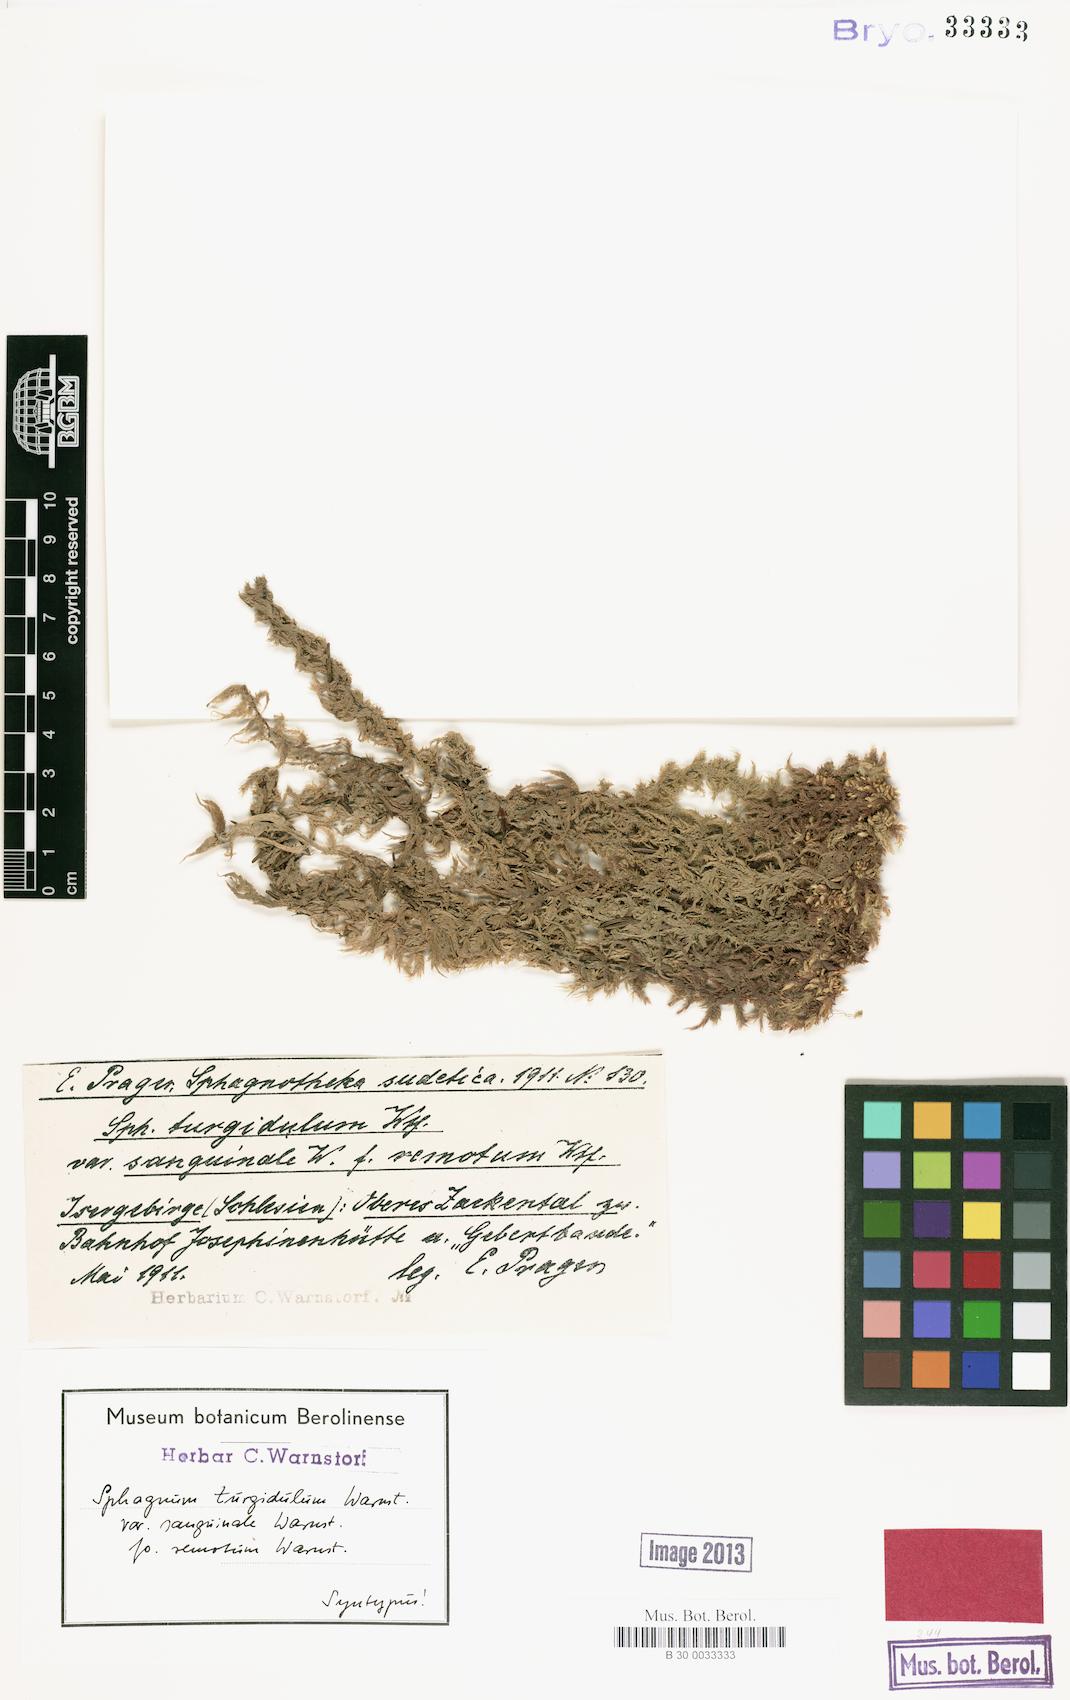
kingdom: Plantae
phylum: Bryophyta
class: Sphagnopsida
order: Sphagnales
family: Sphagnaceae
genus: Sphagnum
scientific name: Sphagnum denticulatum
